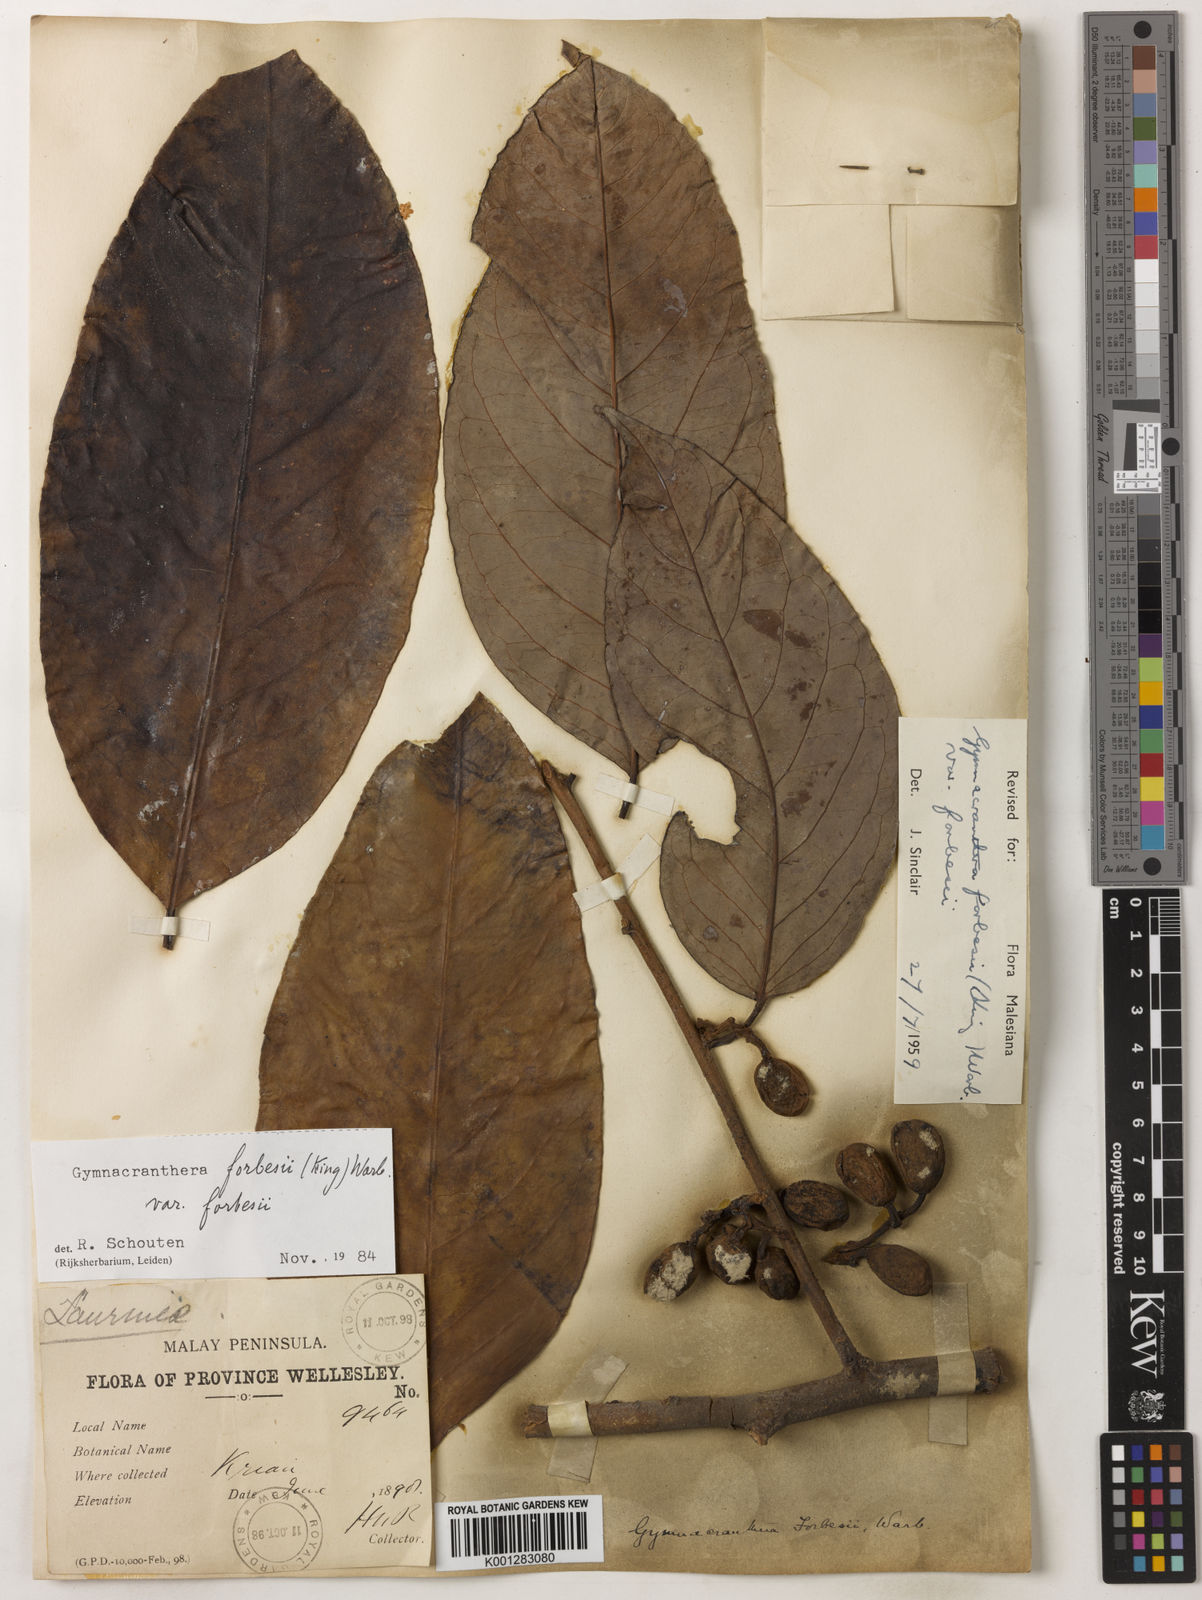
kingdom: Plantae
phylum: Tracheophyta
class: Magnoliopsida
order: Magnoliales
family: Myristicaceae
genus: Gymnacranthera
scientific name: Gymnacranthera forbesii
